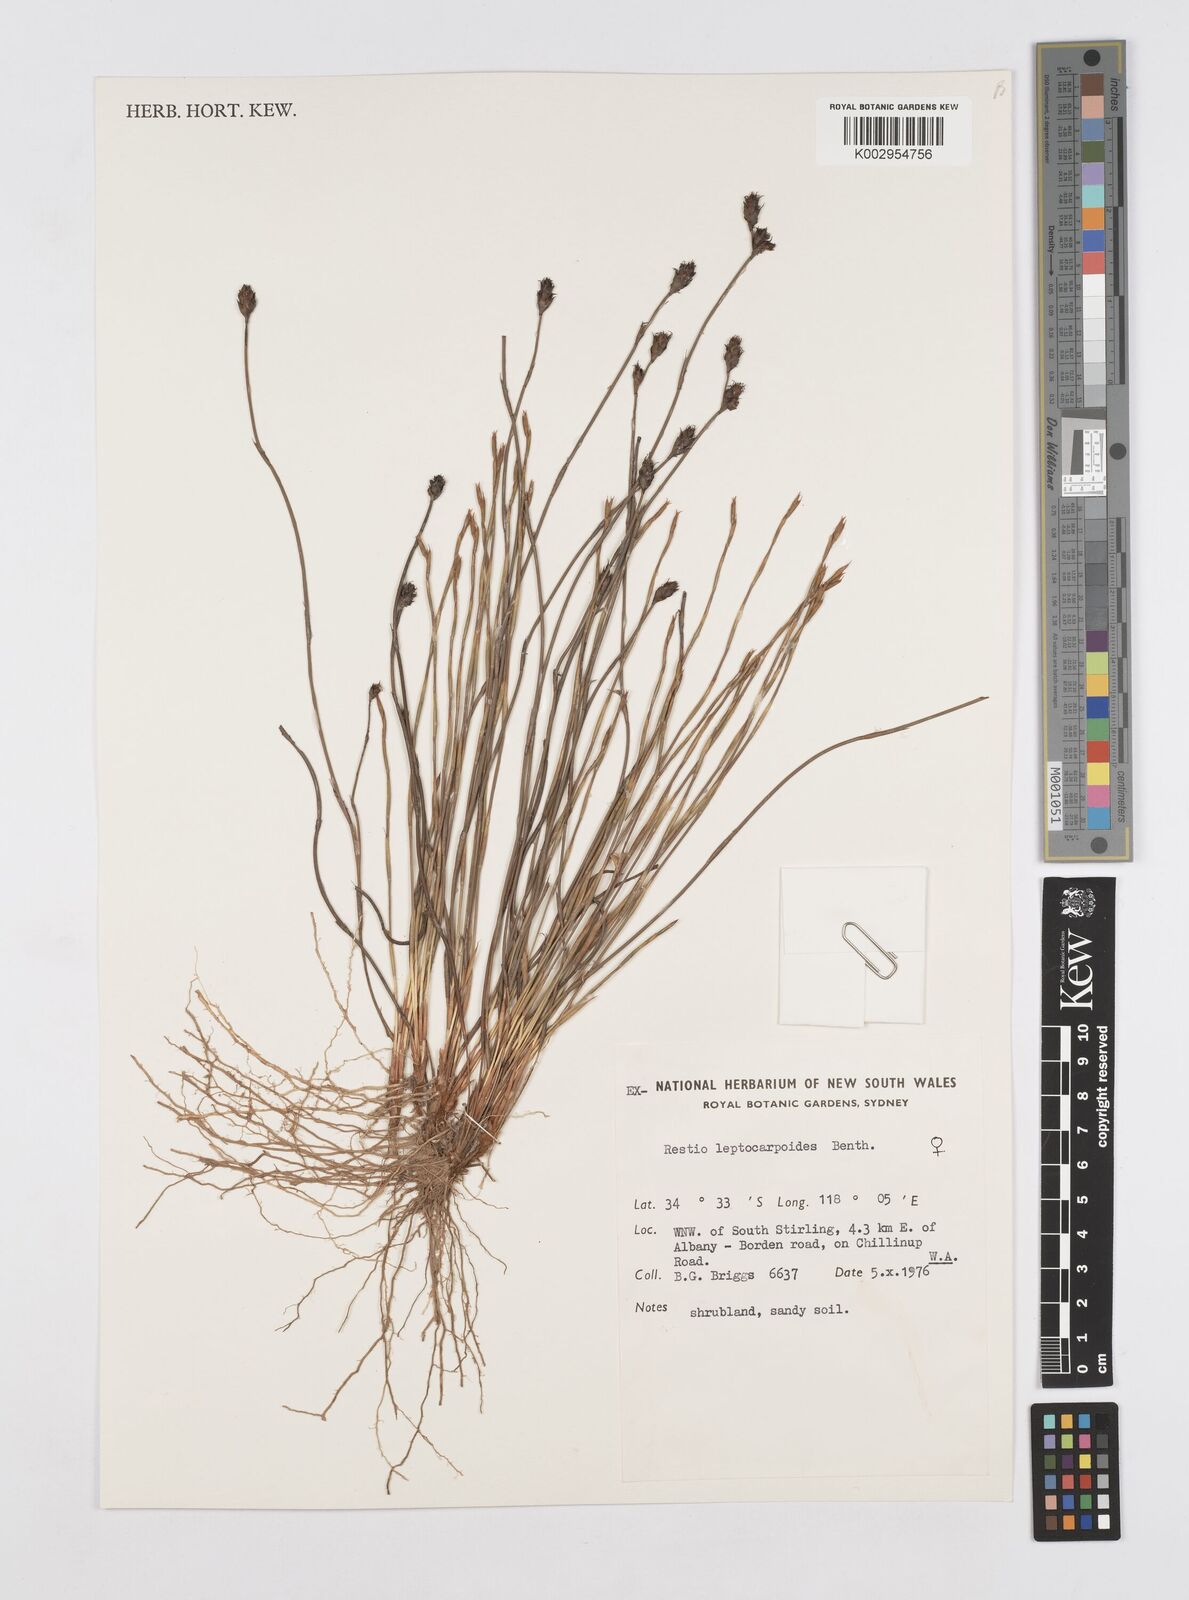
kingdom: Plantae
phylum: Tracheophyta
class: Liliopsida
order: Poales
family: Restionaceae
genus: Cytogonidium
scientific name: Cytogonidium leptocarpoides
